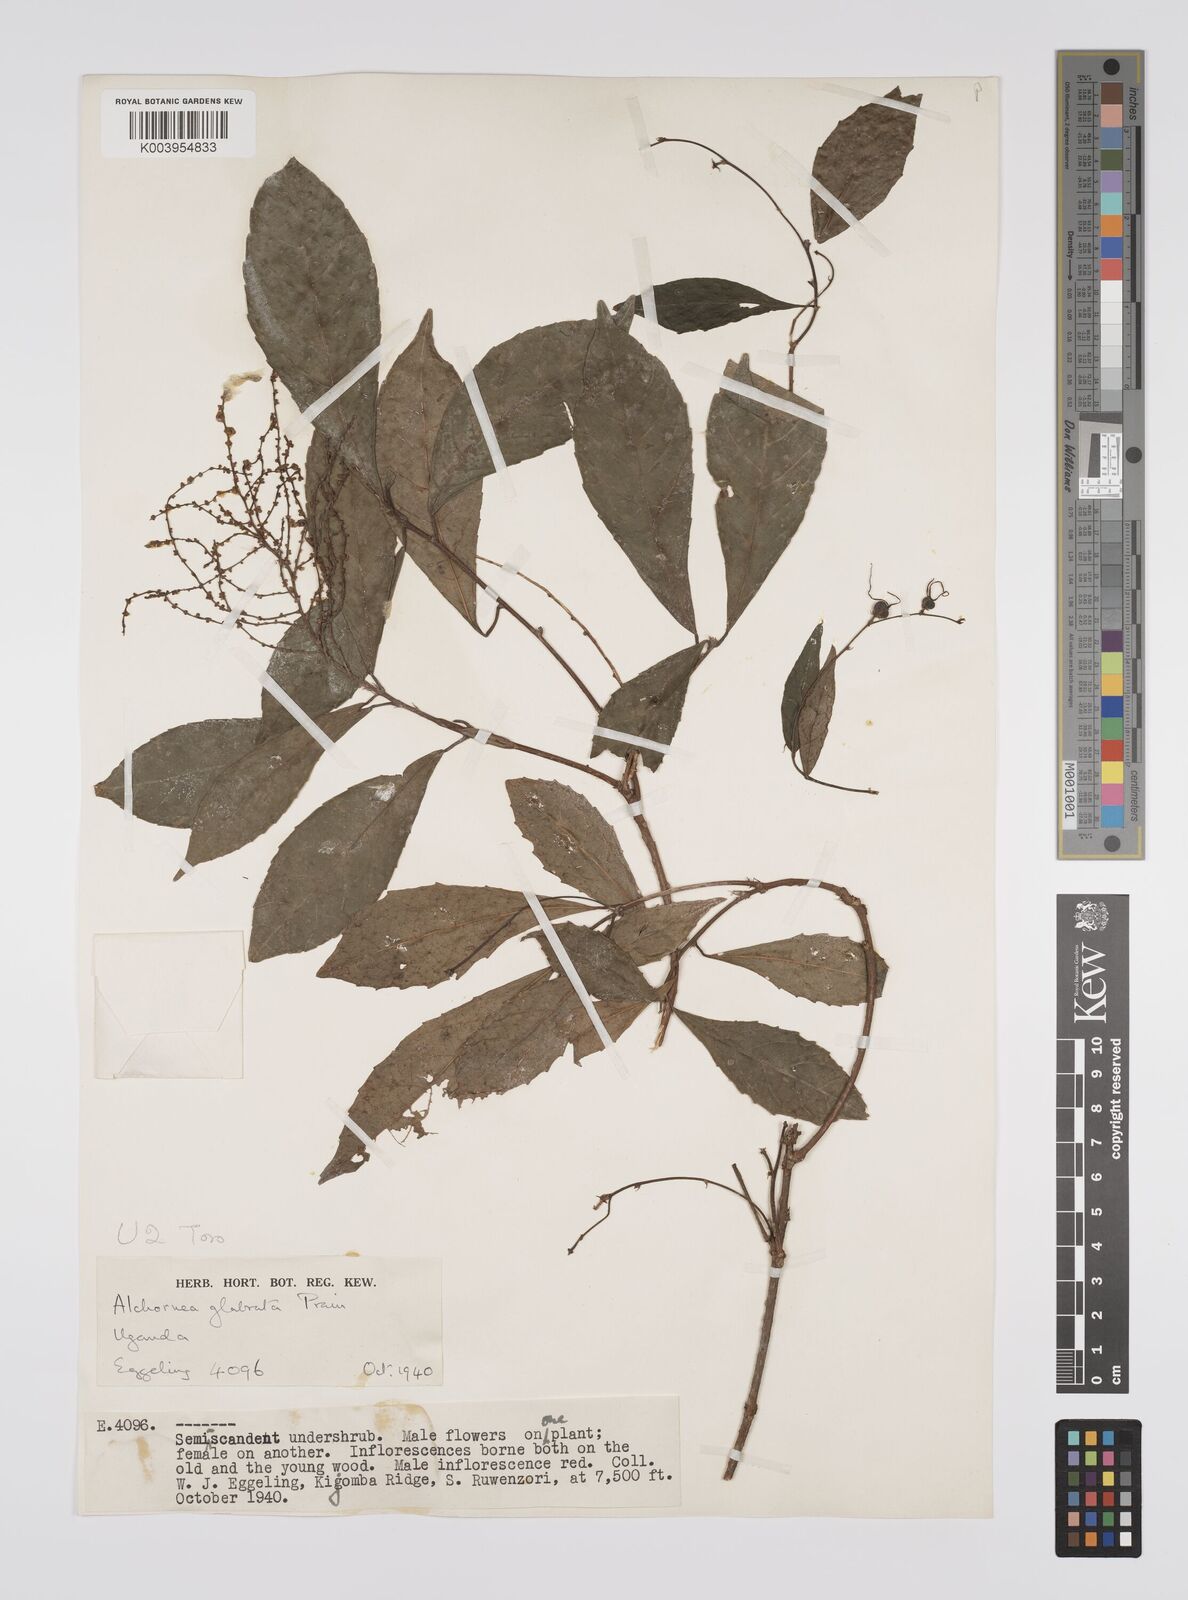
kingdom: Plantae
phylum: Tracheophyta
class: Magnoliopsida
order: Malpighiales
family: Euphorbiaceae
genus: Alchornea
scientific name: Alchornea hirtella
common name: Forest bead-string
